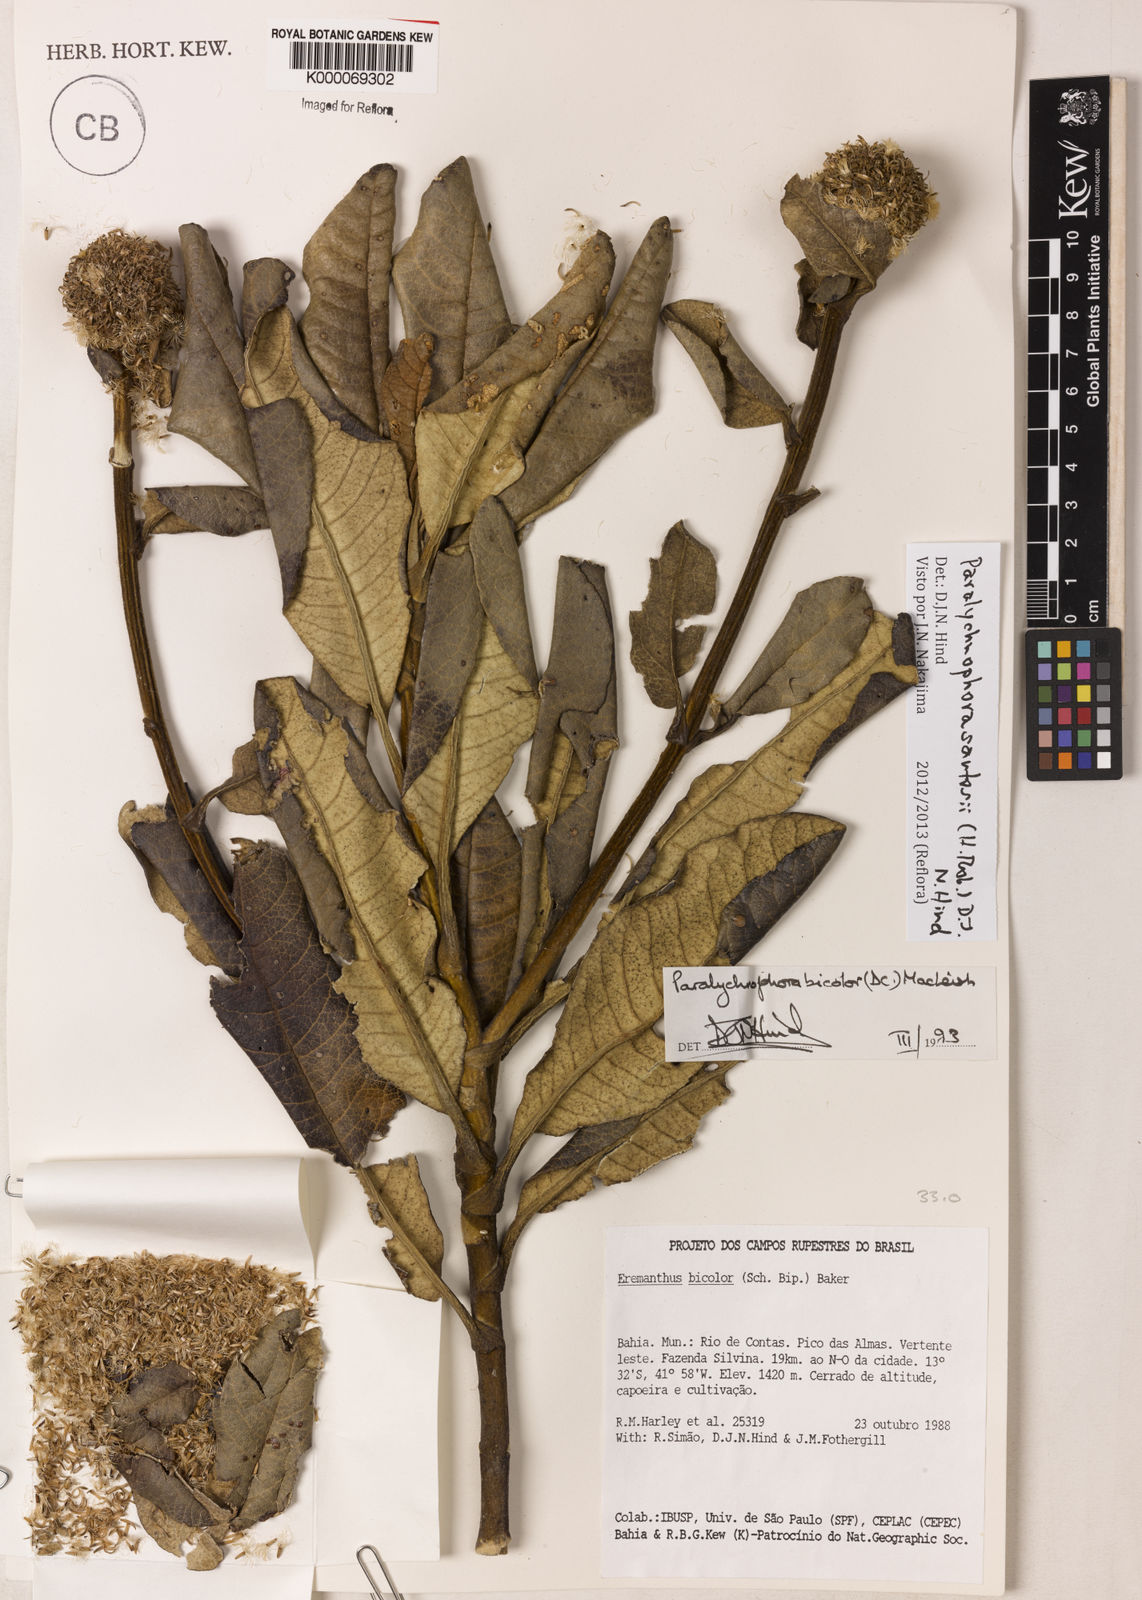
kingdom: Plantae
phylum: Tracheophyta
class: Magnoliopsida
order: Asterales
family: Asteraceae
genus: Paralychnophora
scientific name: Paralychnophora santosii
